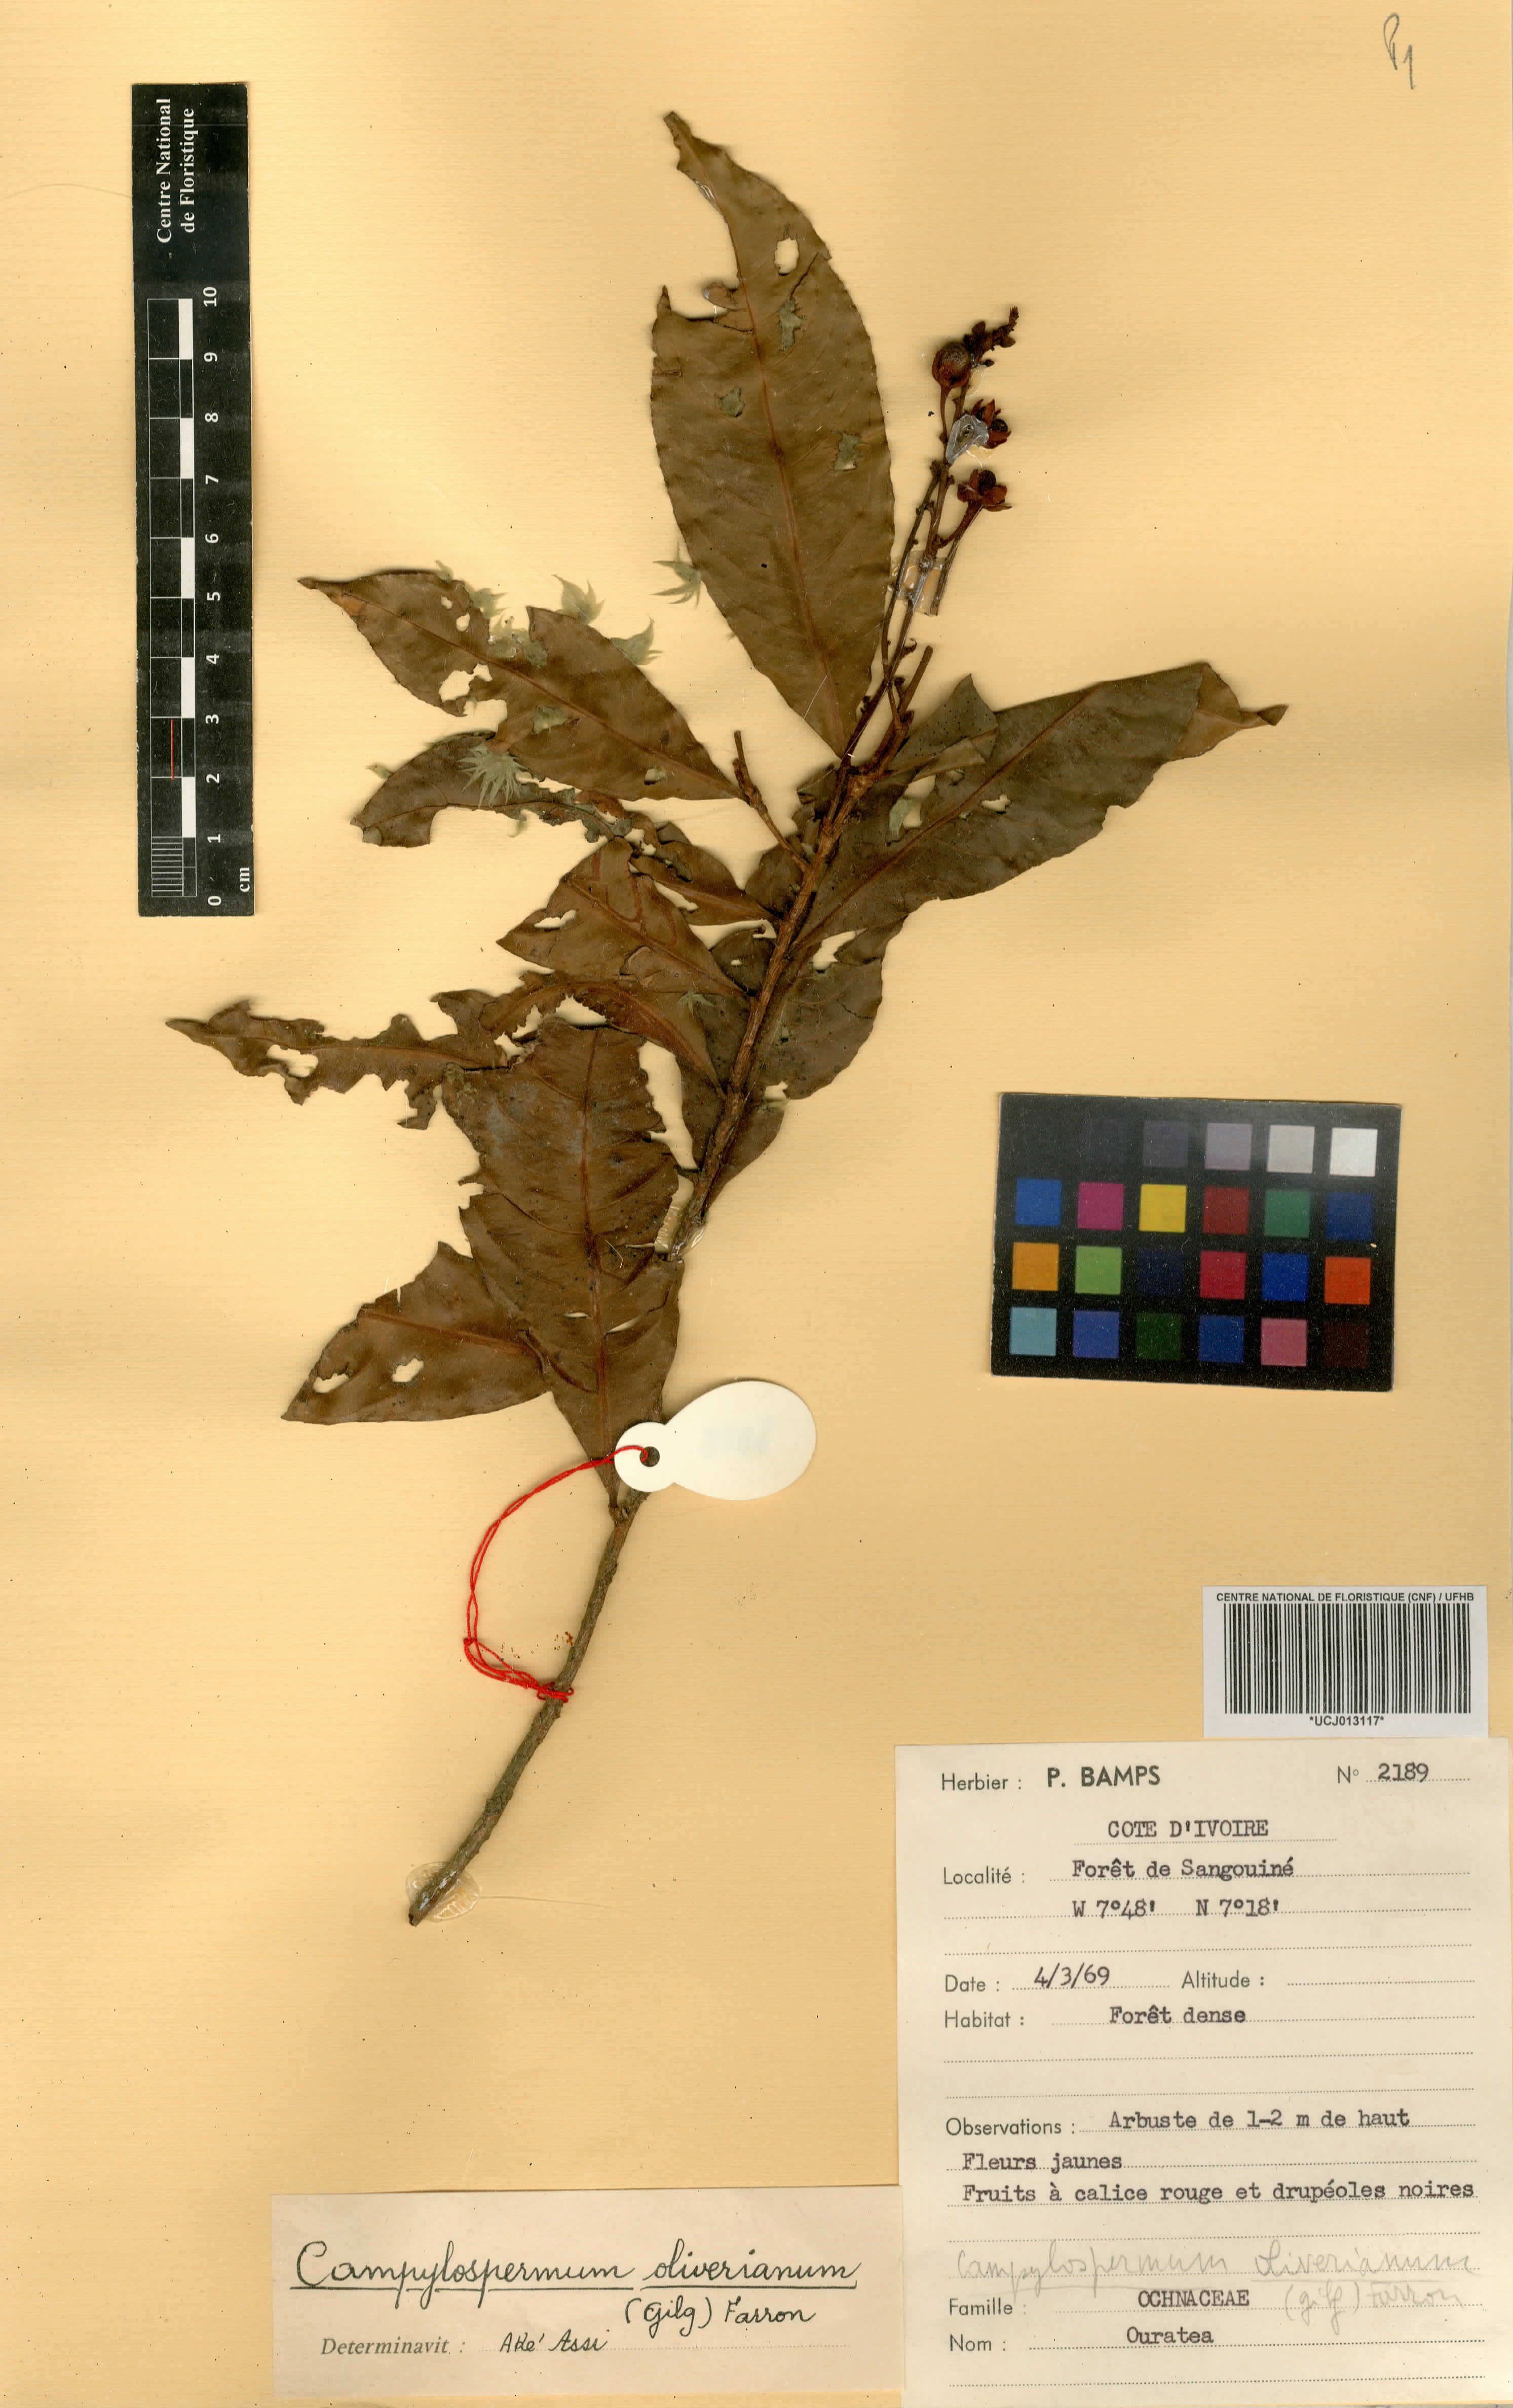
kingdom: Plantae
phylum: Tracheophyta
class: Magnoliopsida
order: Malpighiales
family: Ochnaceae
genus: Campylospermum
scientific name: Campylospermum oliverianum
